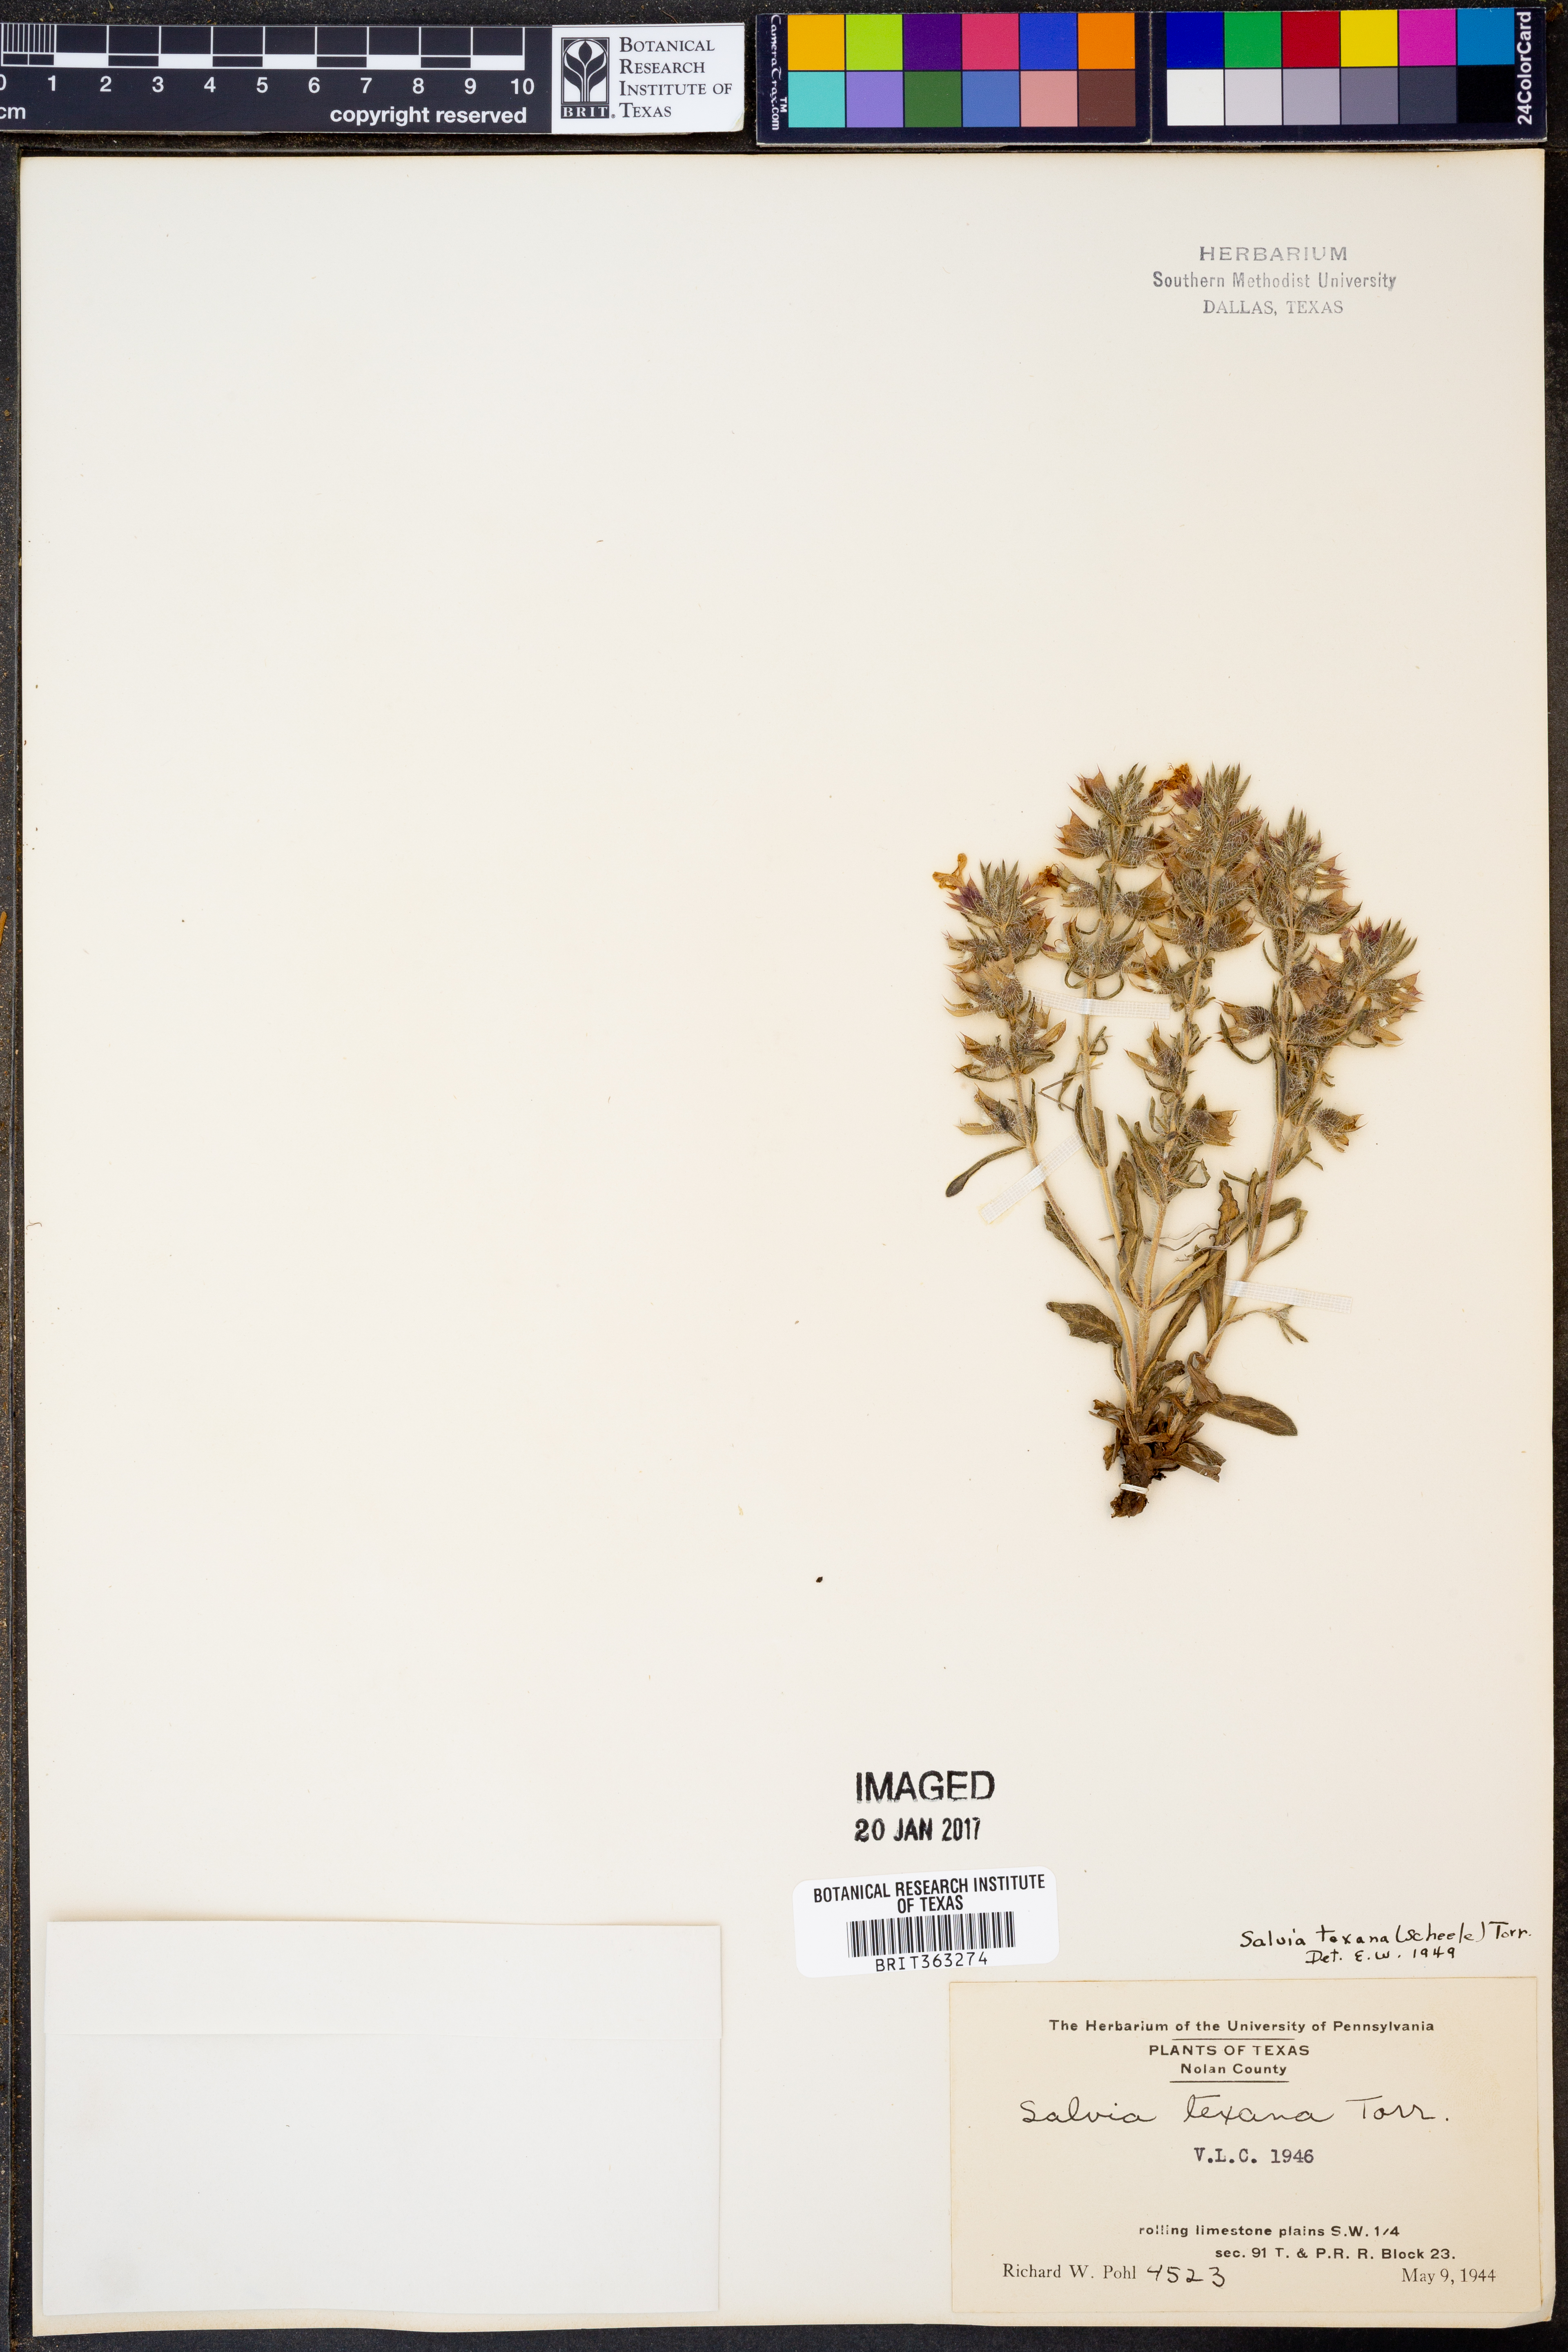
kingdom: Plantae
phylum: Tracheophyta
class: Magnoliopsida
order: Lamiales
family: Lamiaceae
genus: Salvia
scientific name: Salvia texana
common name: Texas sage
